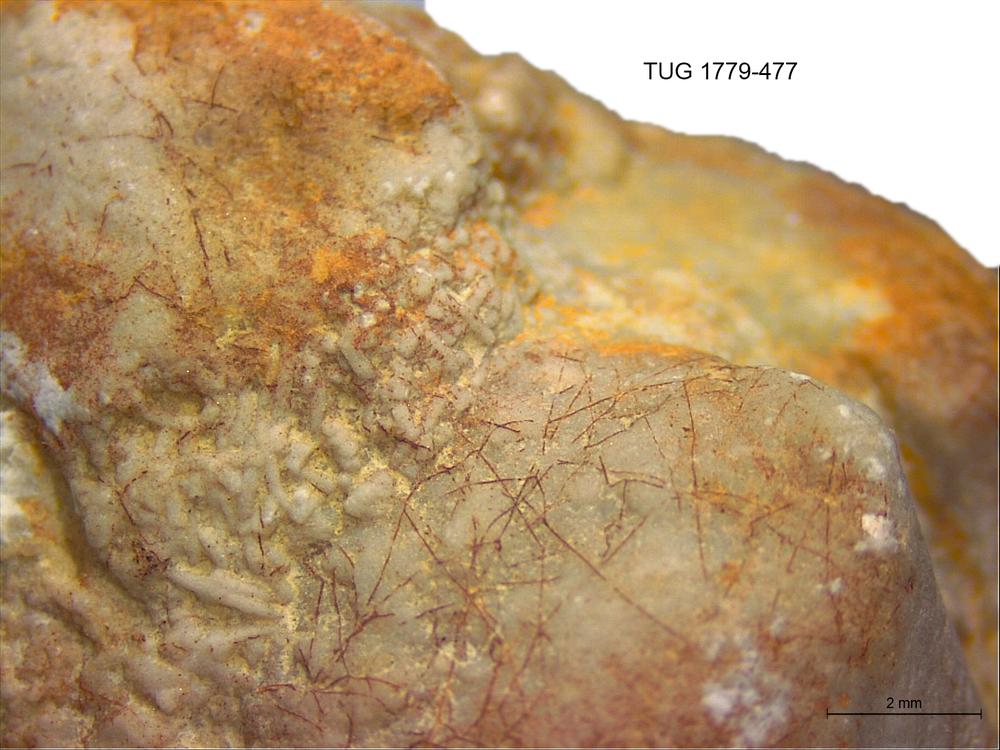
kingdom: Animalia
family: Coprulidae
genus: Coprulus
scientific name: Coprulus
